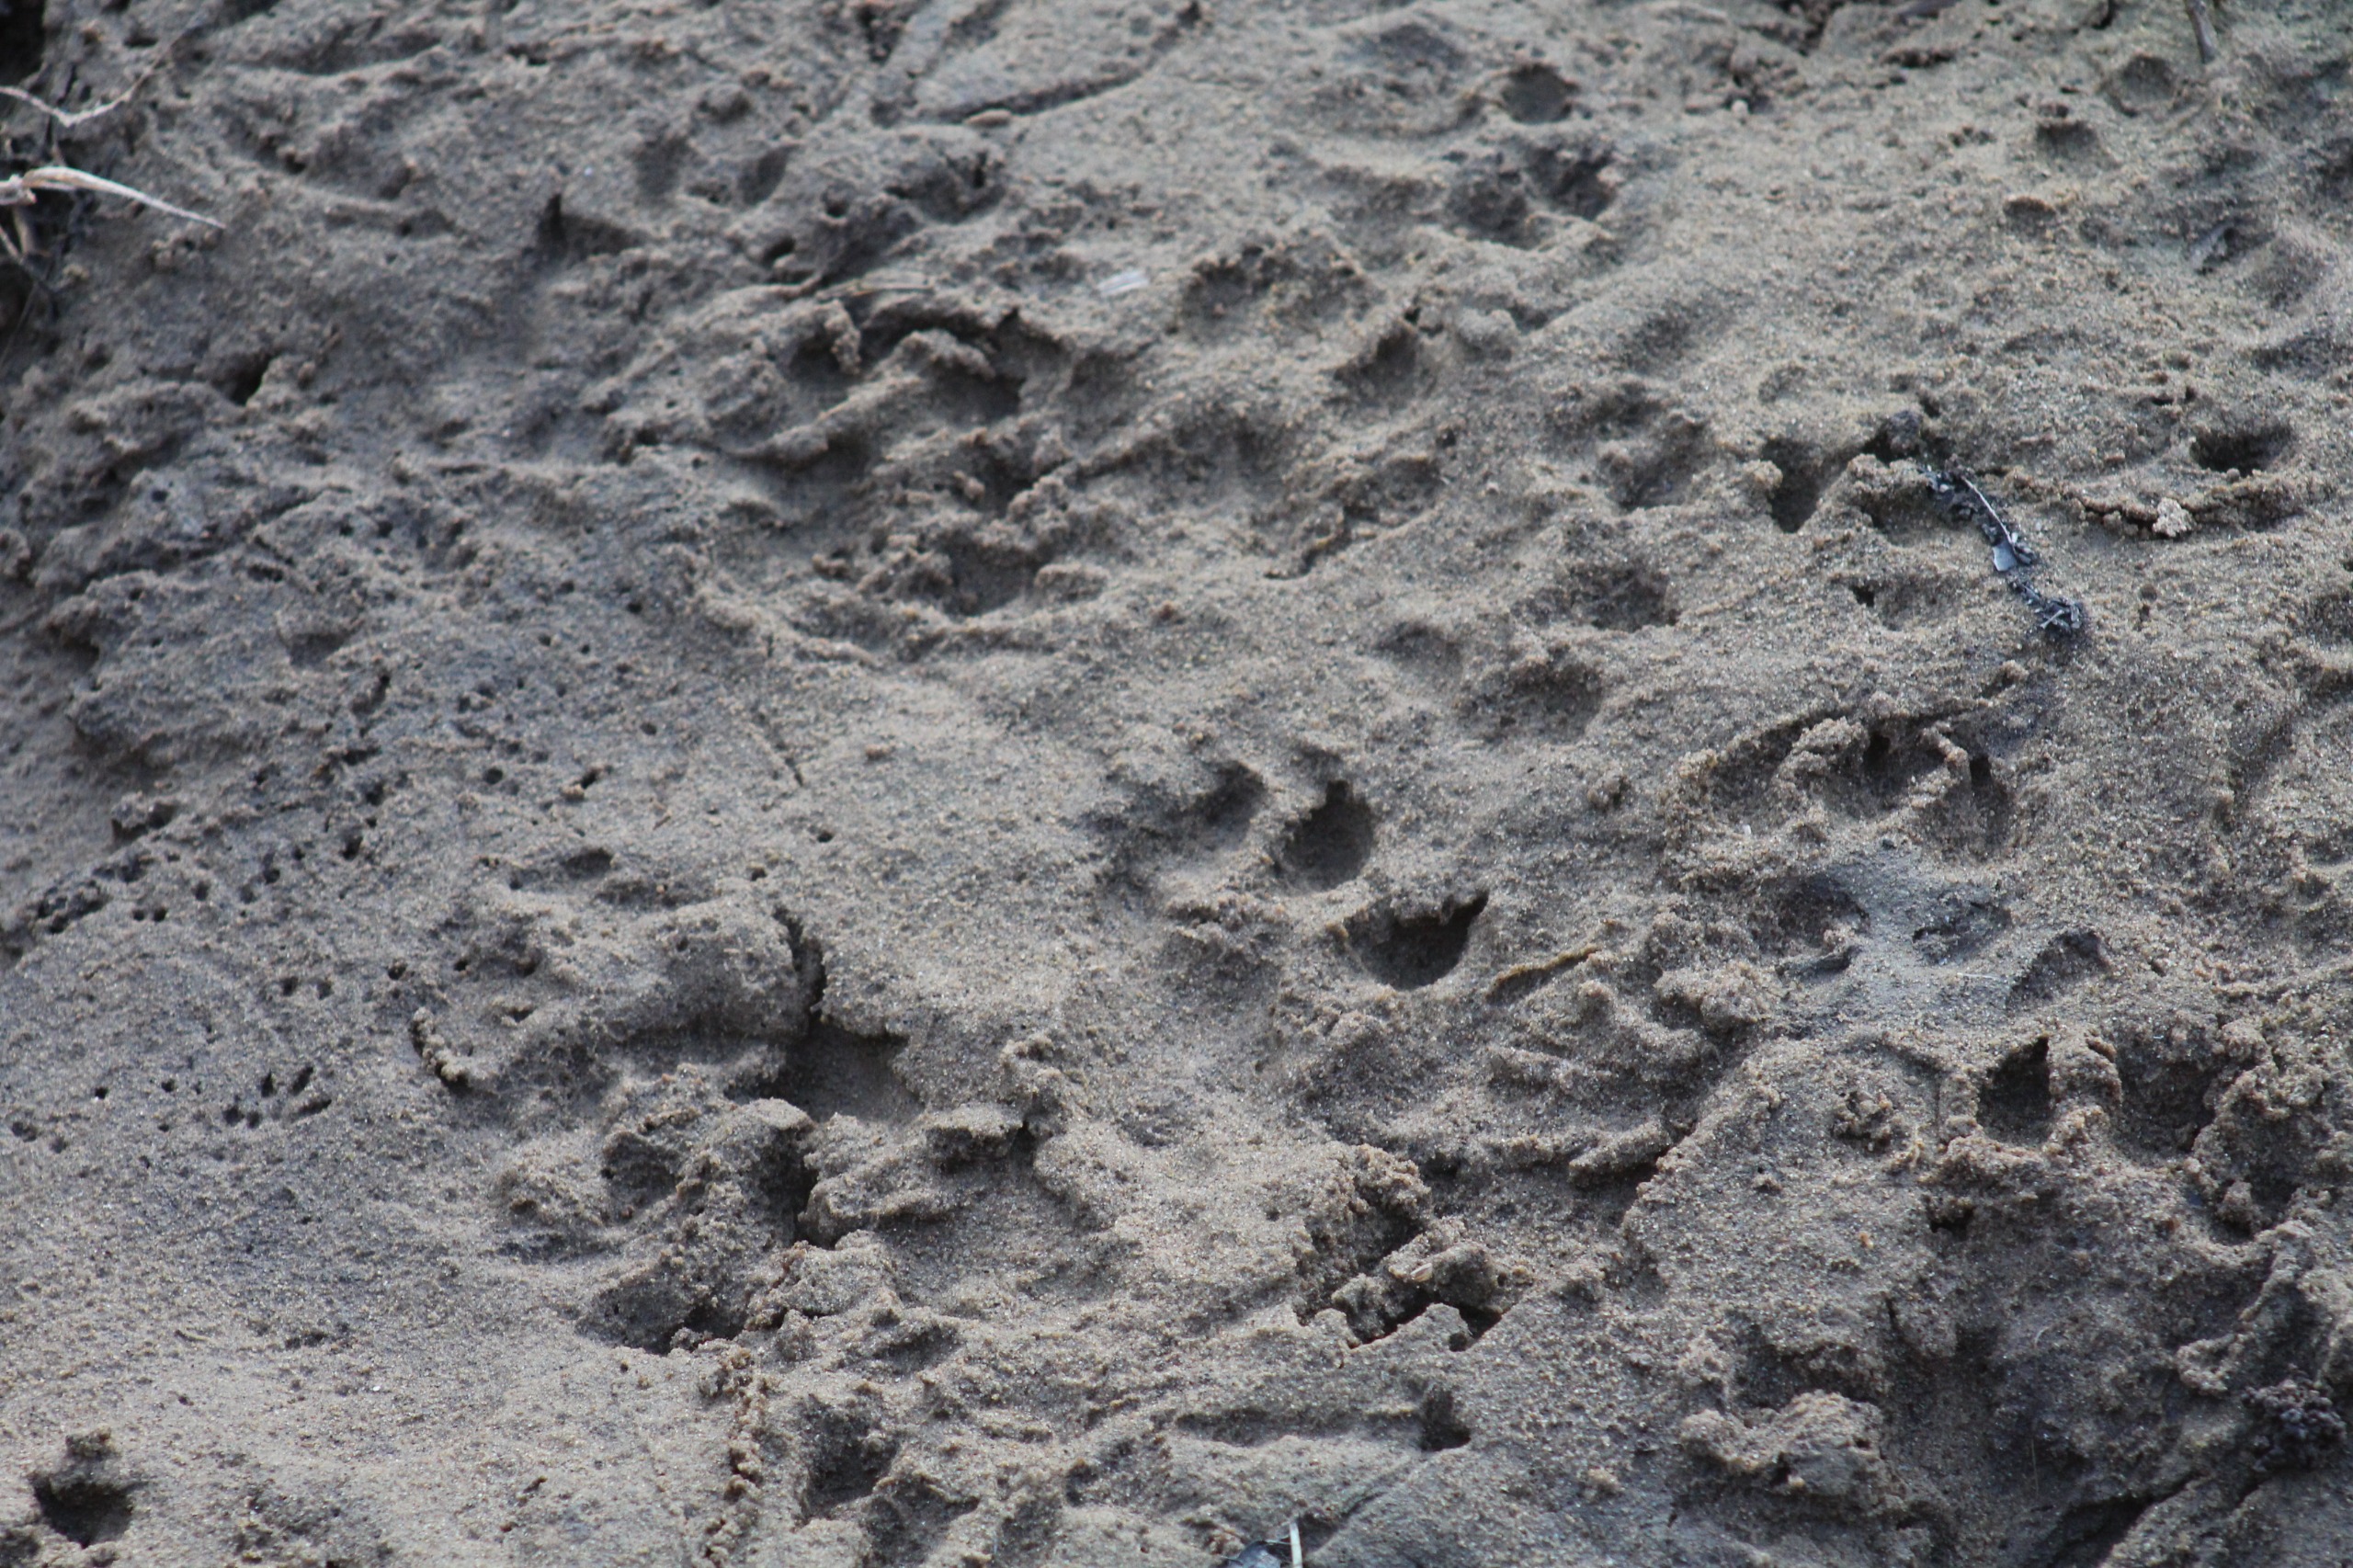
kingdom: Animalia
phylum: Chordata
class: Mammalia
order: Carnivora
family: Mustelidae
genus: Lutra
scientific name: Lutra lutra
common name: Odder
